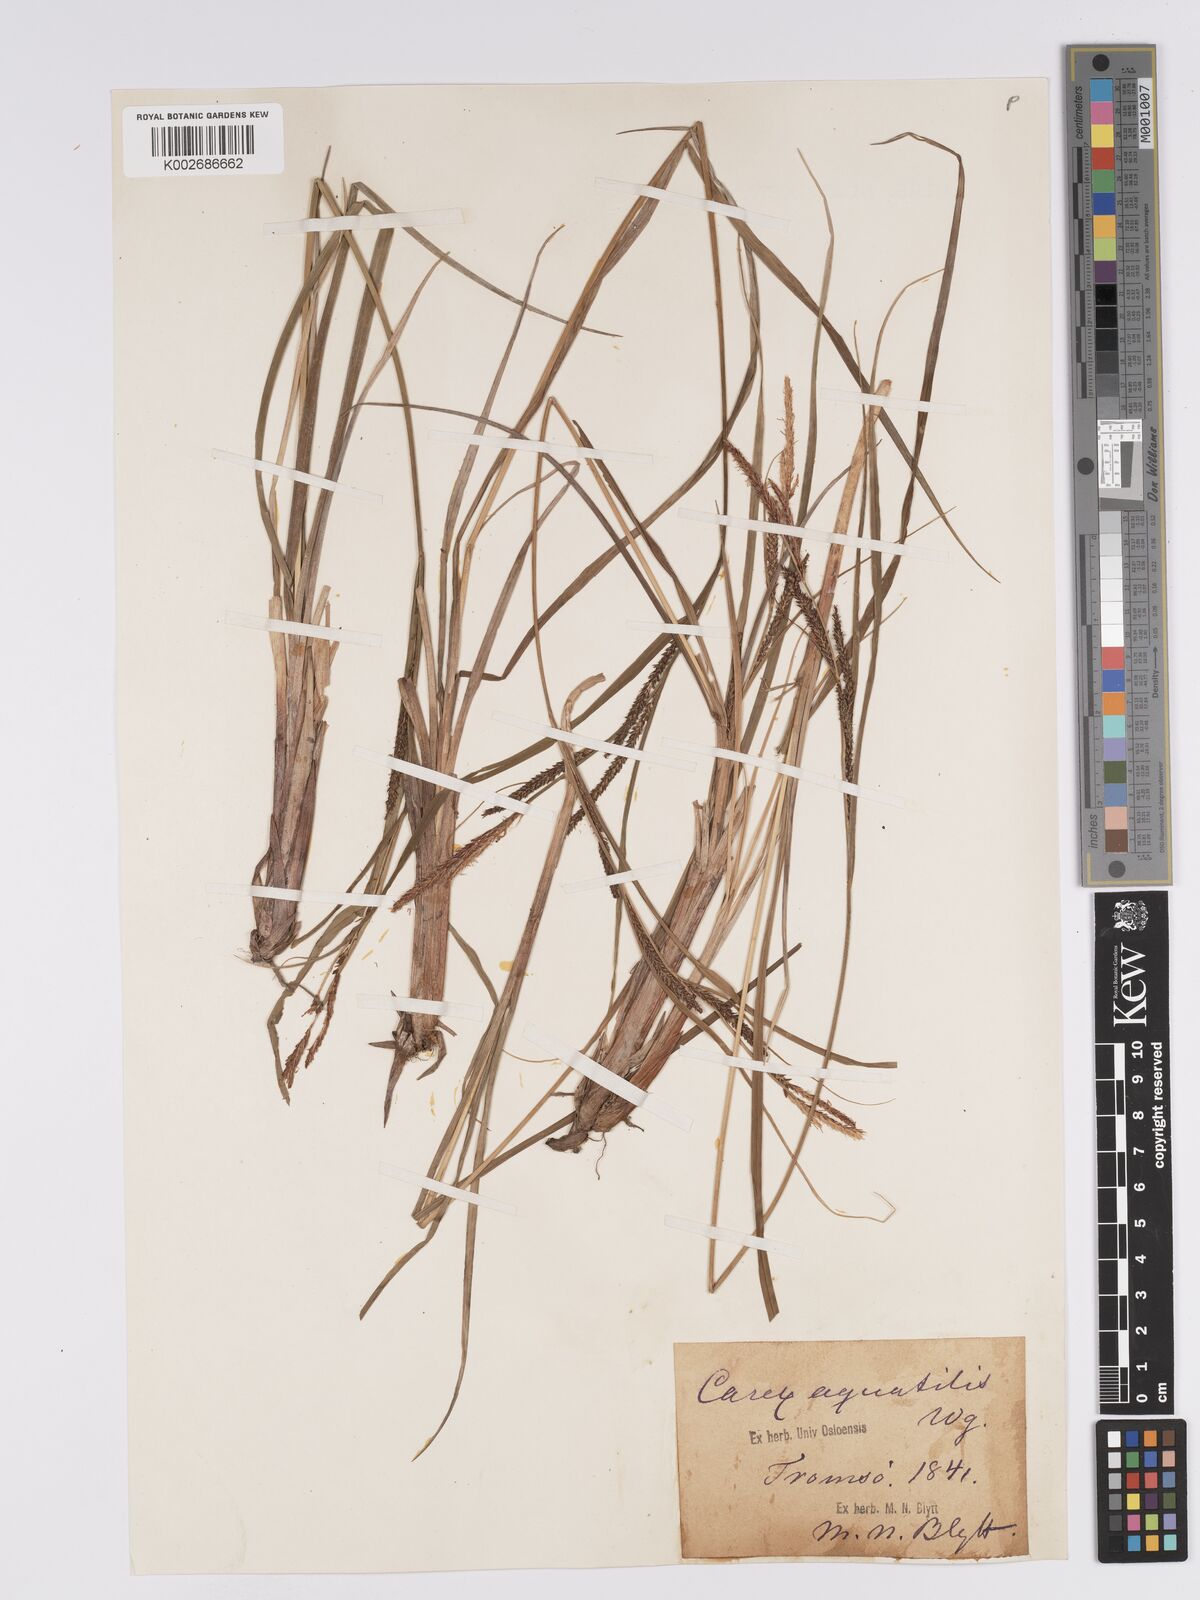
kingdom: Plantae
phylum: Tracheophyta
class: Liliopsida
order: Poales
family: Cyperaceae
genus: Carex
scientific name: Carex aquatilis
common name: Water sedge
